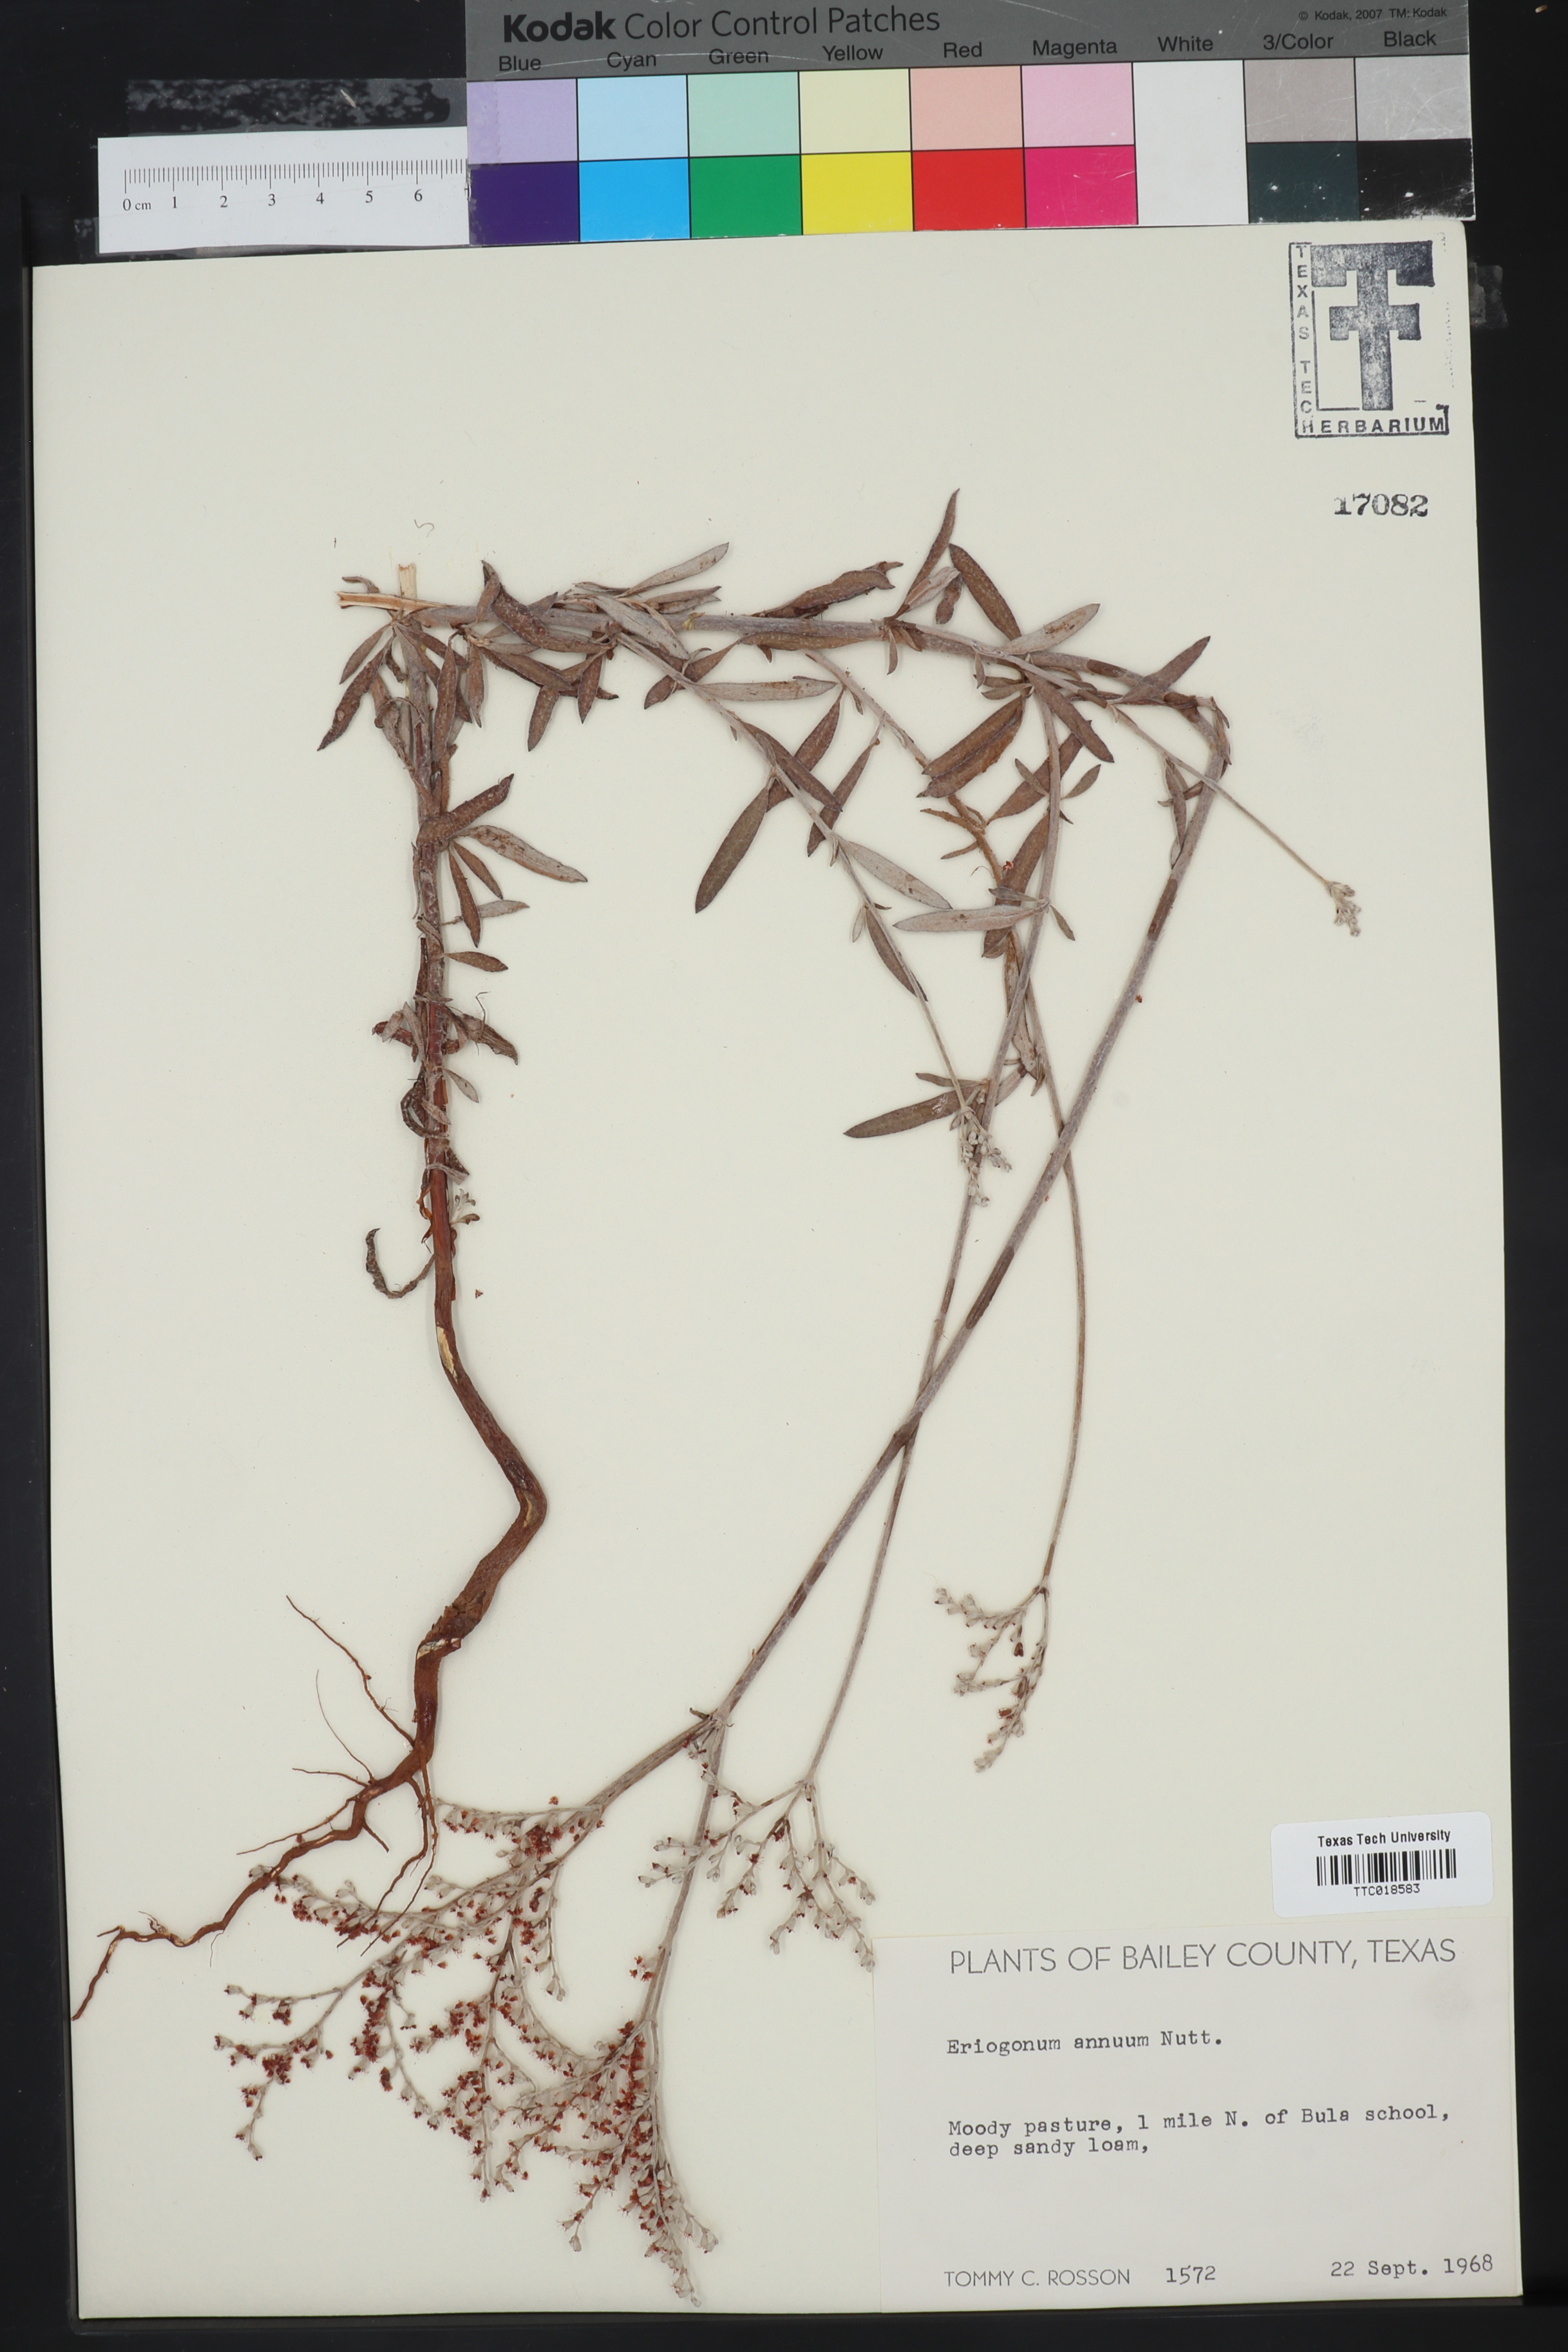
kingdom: Plantae
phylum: Tracheophyta
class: Magnoliopsida
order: Caryophyllales
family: Polygonaceae
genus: Eriogonum
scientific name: Eriogonum annuum
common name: Annual wild buckwheat
